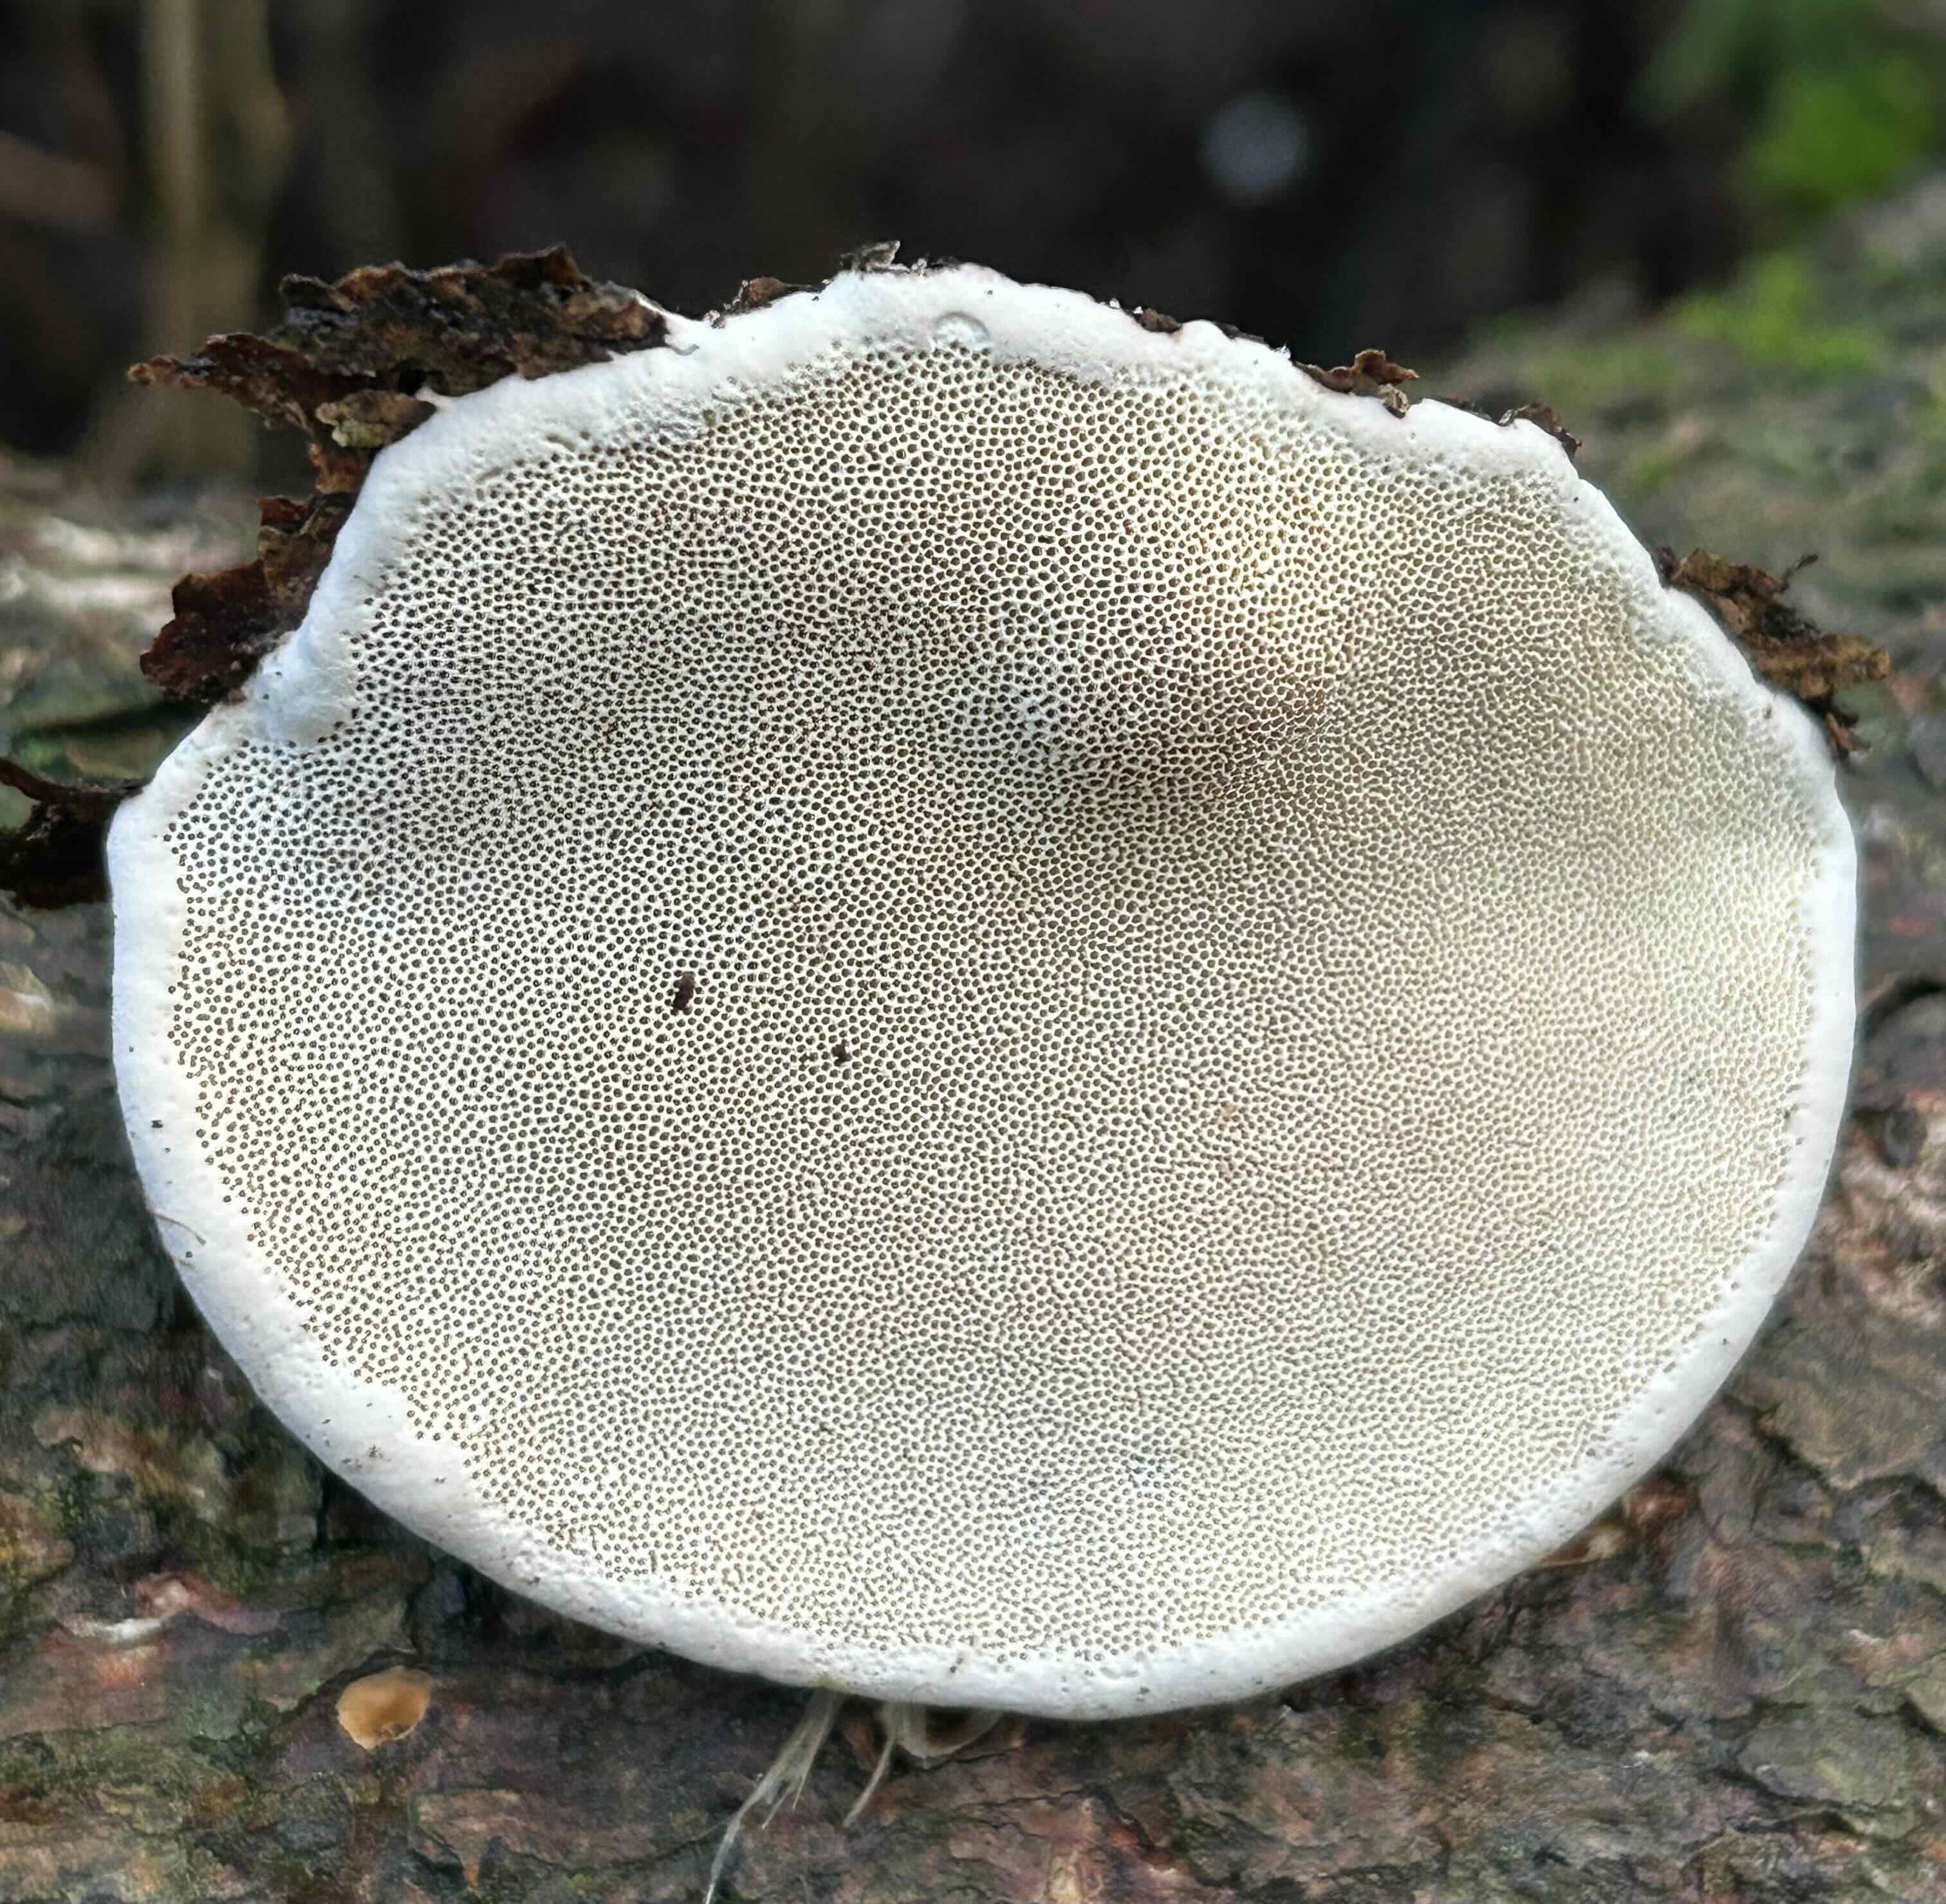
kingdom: Fungi
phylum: Basidiomycota
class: Agaricomycetes
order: Polyporales
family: Fomitopsidaceae
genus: Fomitopsis
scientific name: Fomitopsis pinicola
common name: randbæltet hovporesvamp
